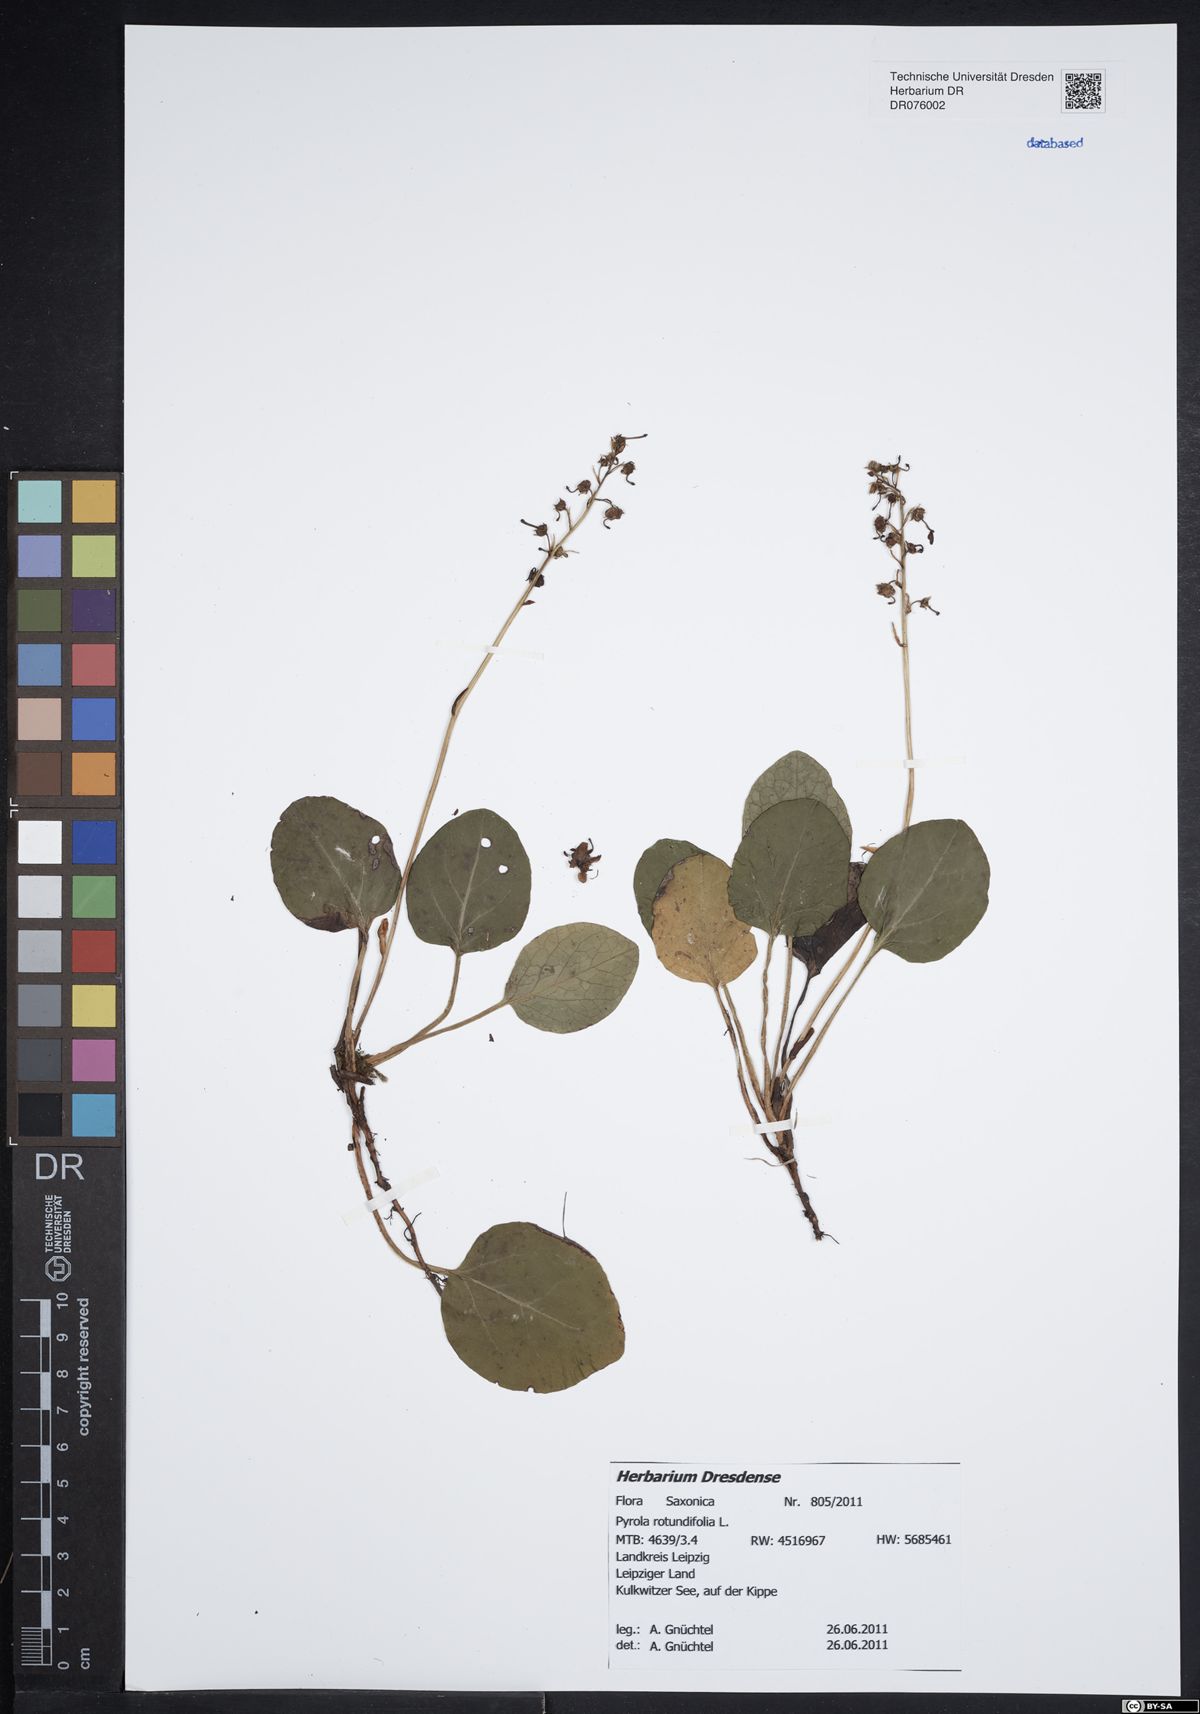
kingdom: Plantae
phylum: Tracheophyta
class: Magnoliopsida
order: Ericales
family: Ericaceae
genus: Pyrola
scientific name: Pyrola rotundifolia
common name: Round-leaved wintergreen
